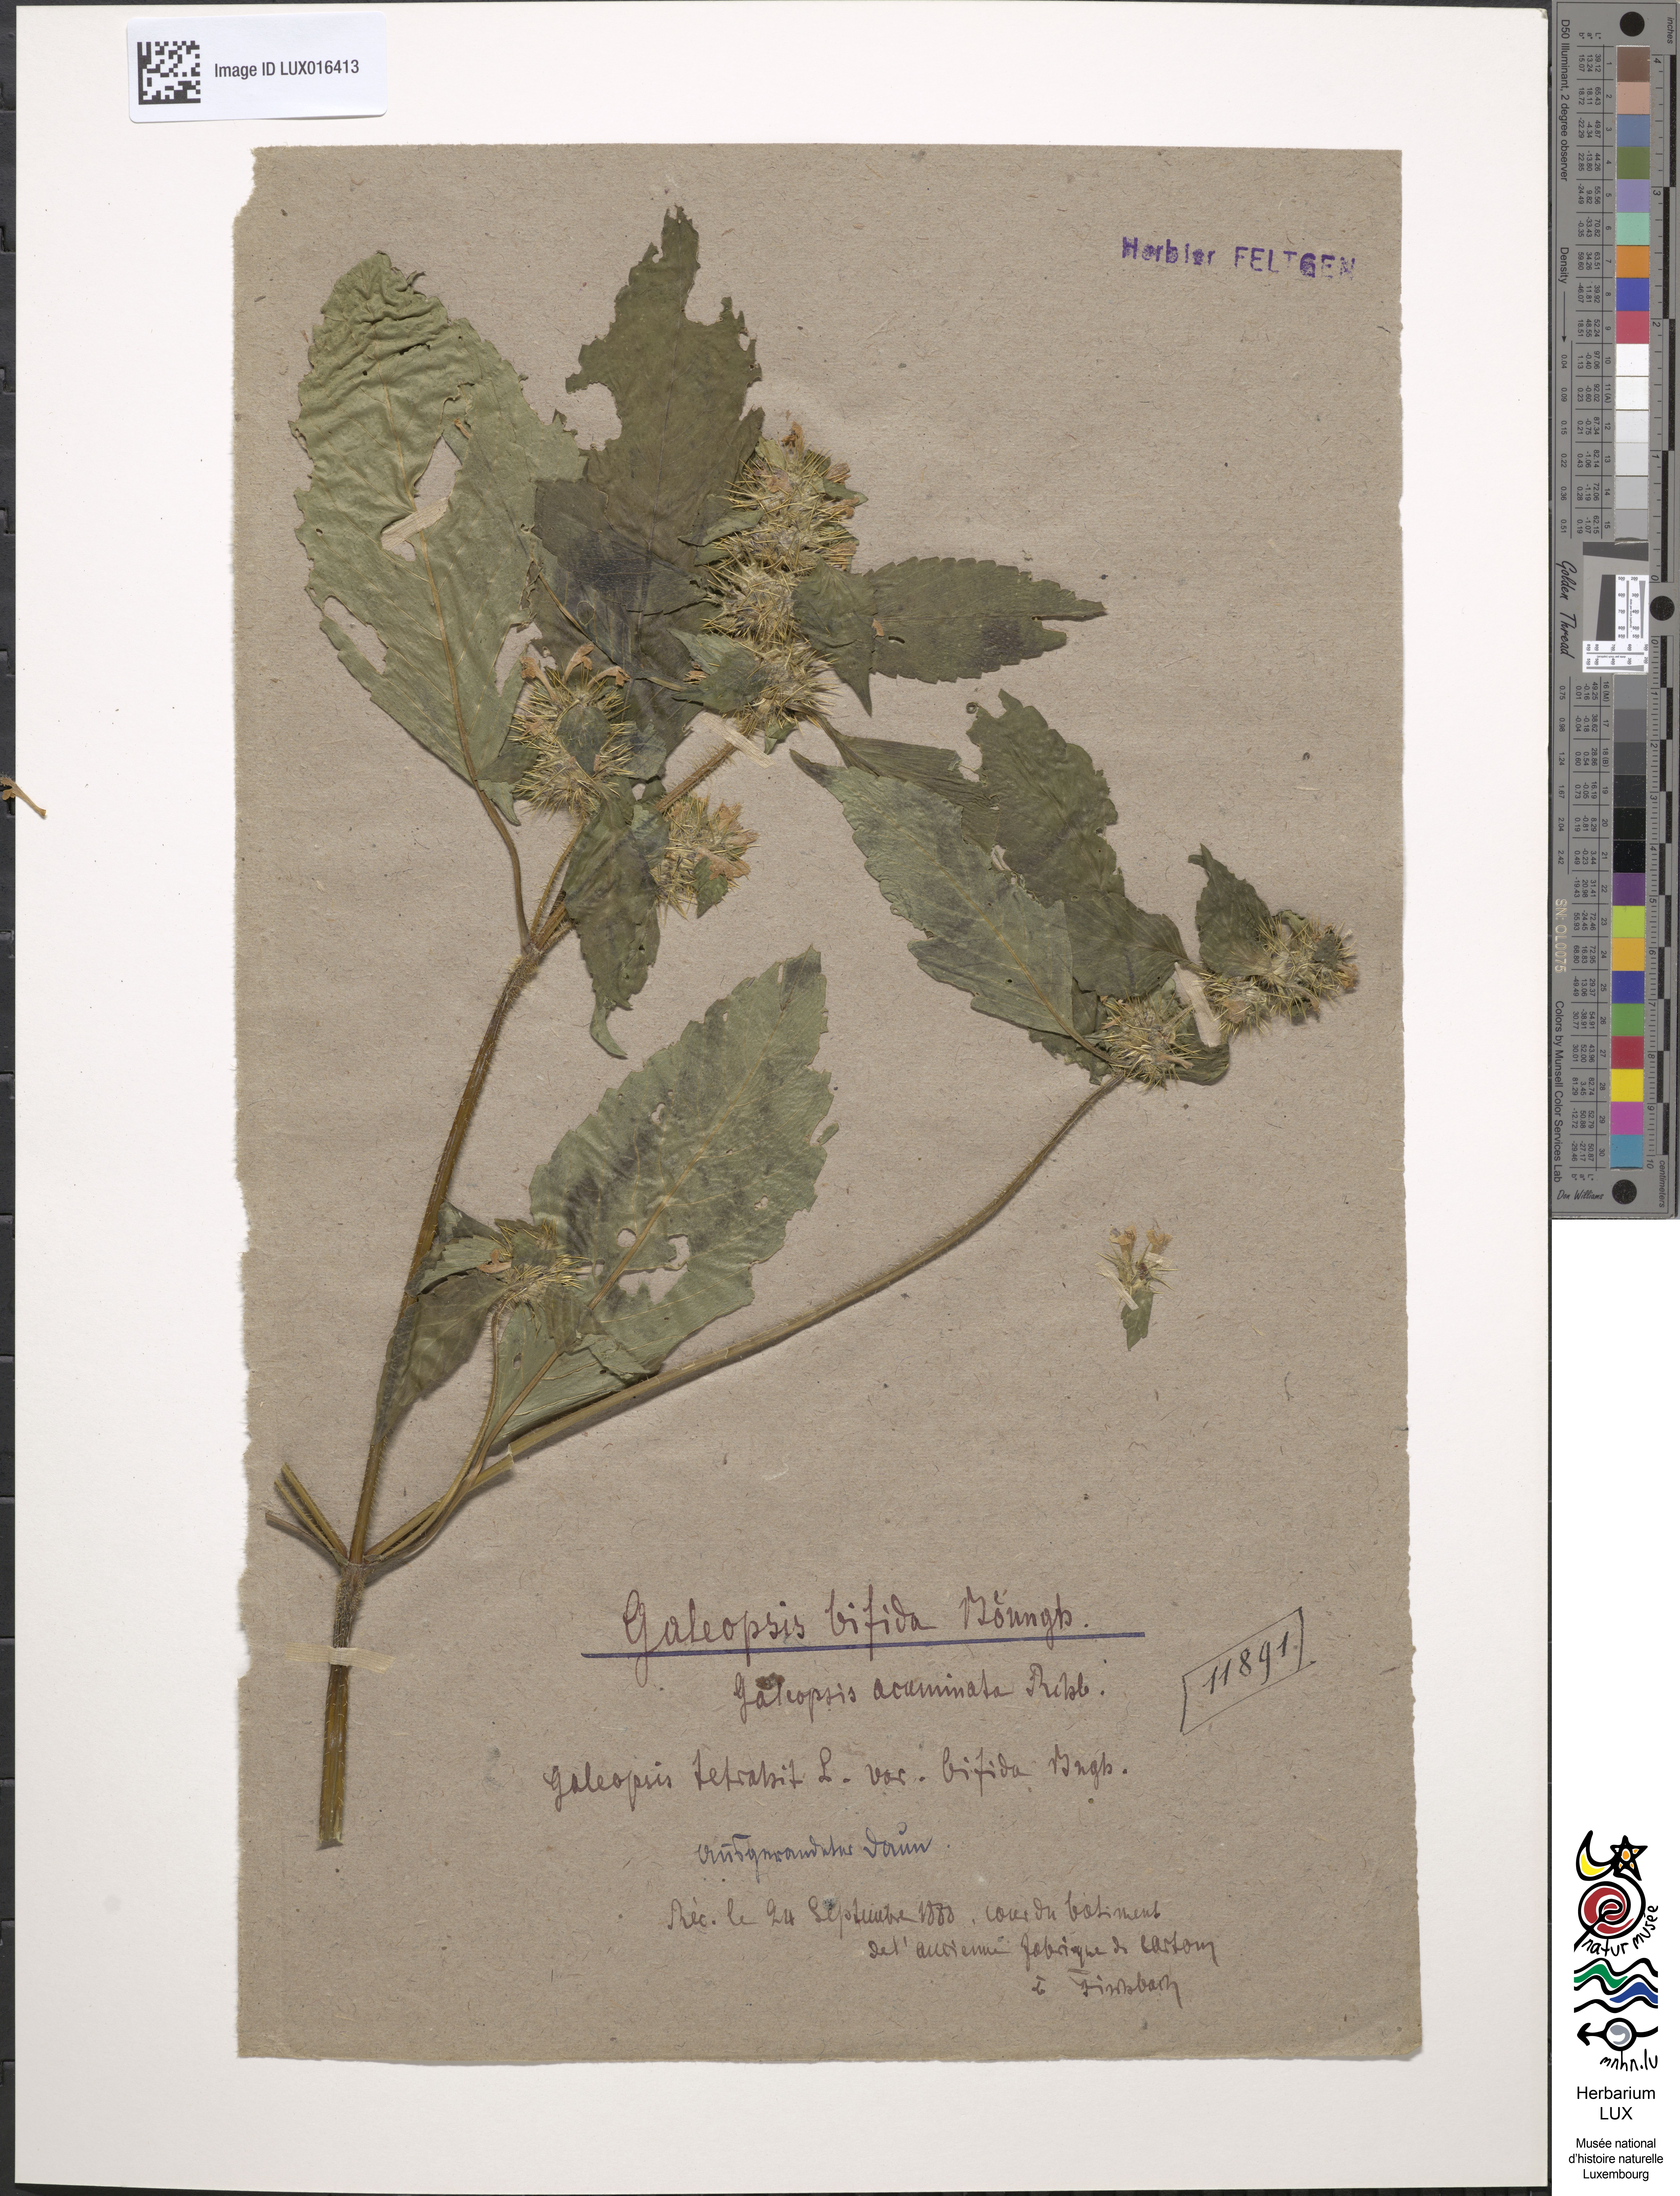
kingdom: Plantae
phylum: Tracheophyta
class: Magnoliopsida
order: Lamiales
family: Lamiaceae
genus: Galeopsis
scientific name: Galeopsis bifida
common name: Bifid hemp-nettle
